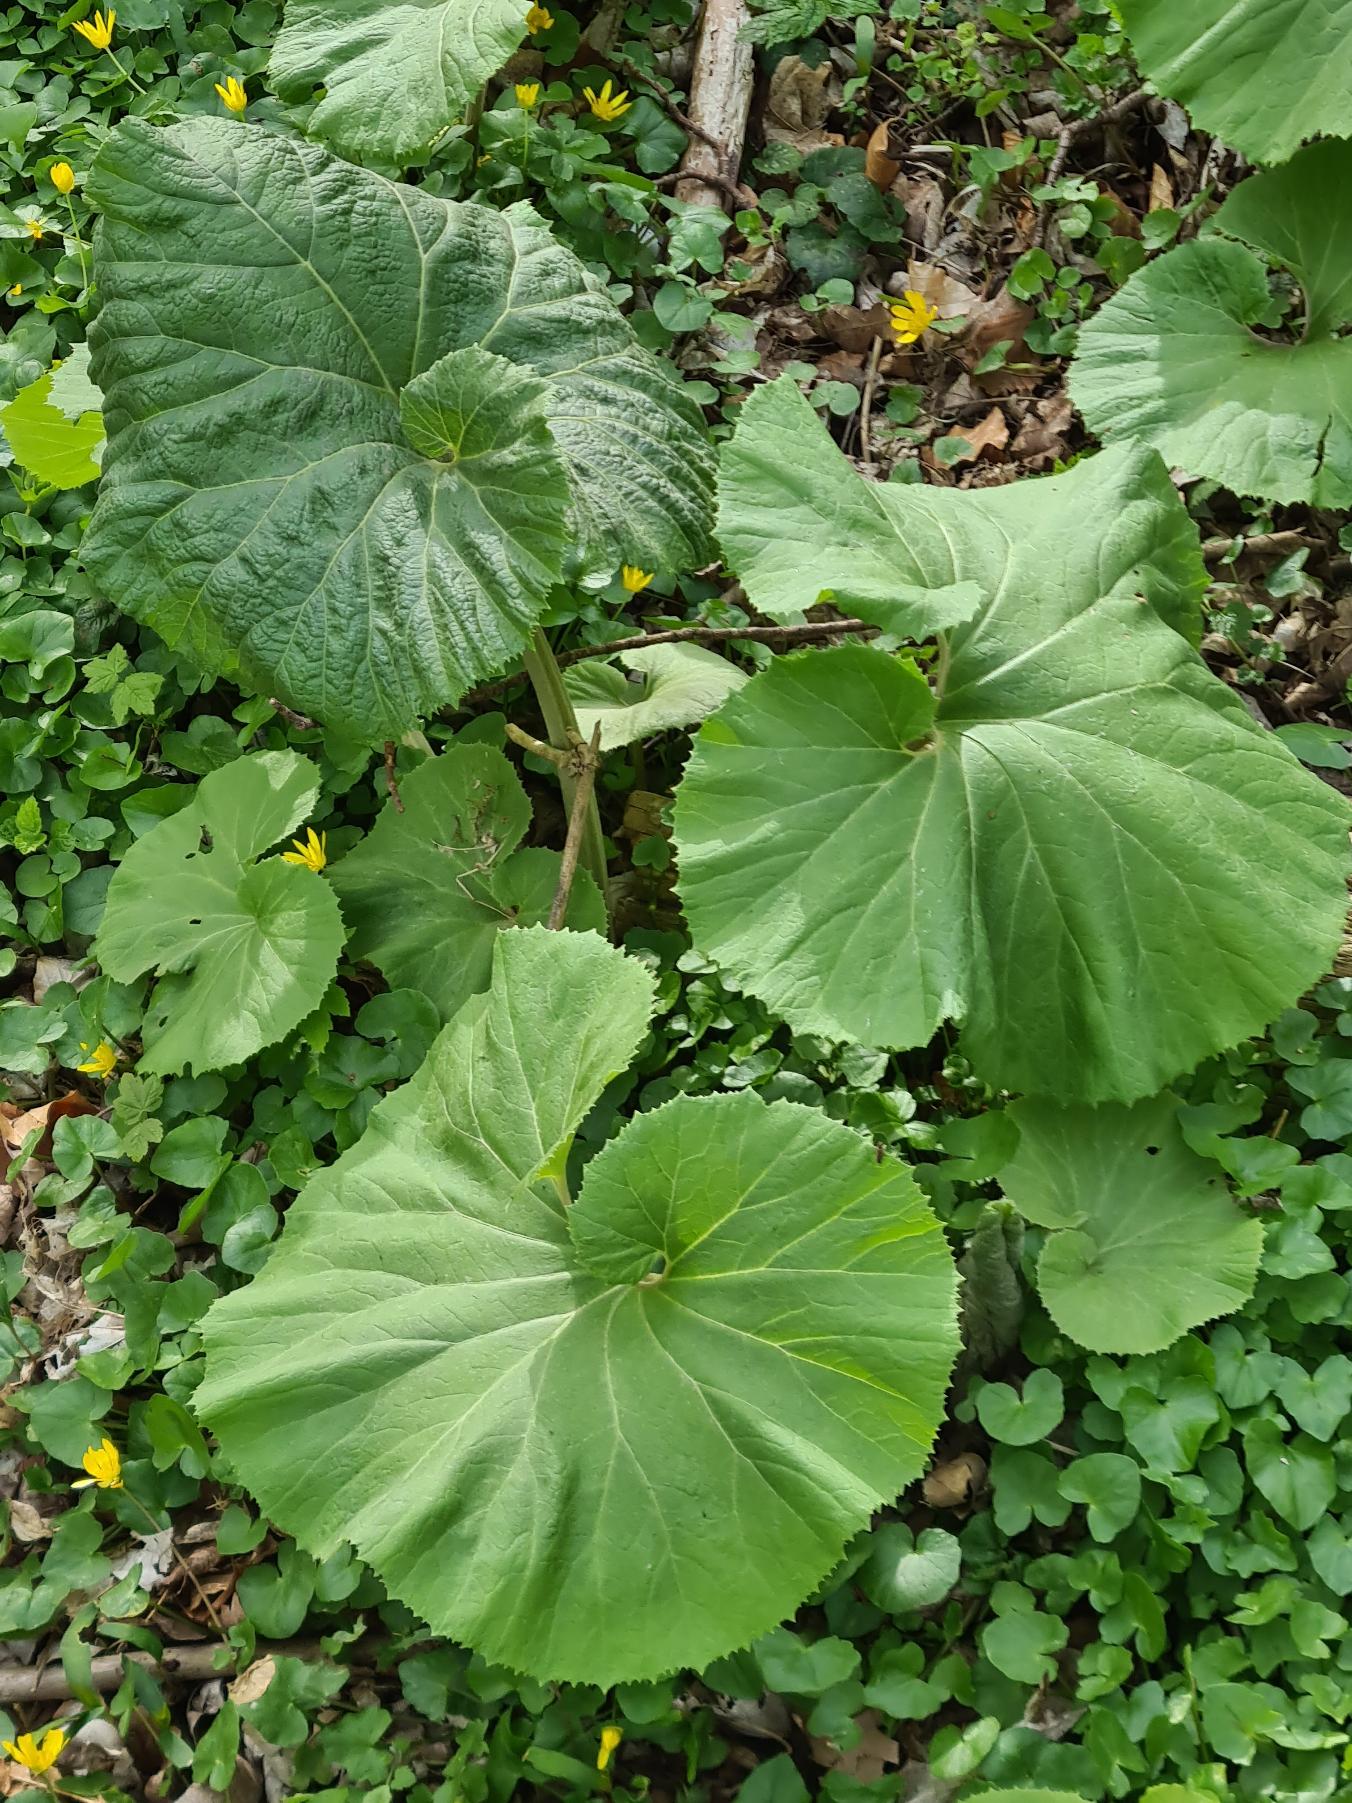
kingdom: Plantae
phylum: Tracheophyta
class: Magnoliopsida
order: Asterales
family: Asteraceae
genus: Petasites
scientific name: Petasites japonicus
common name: Japansk hestehov
